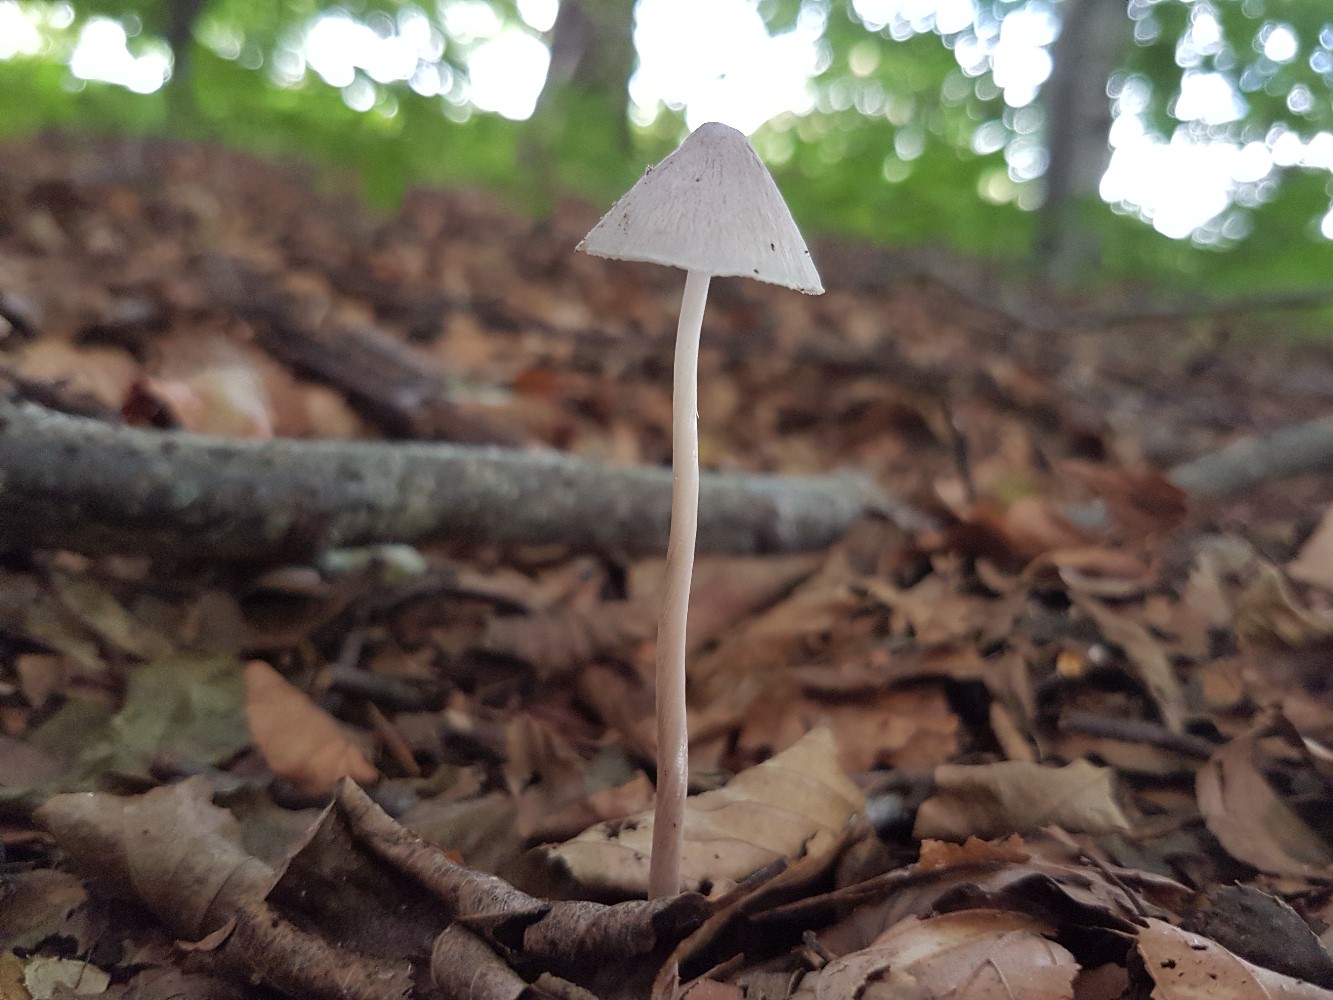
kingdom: Fungi
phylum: Basidiomycota
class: Agaricomycetes
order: Agaricales
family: Mycenaceae
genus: Mycena
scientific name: Mycena
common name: huesvamp
